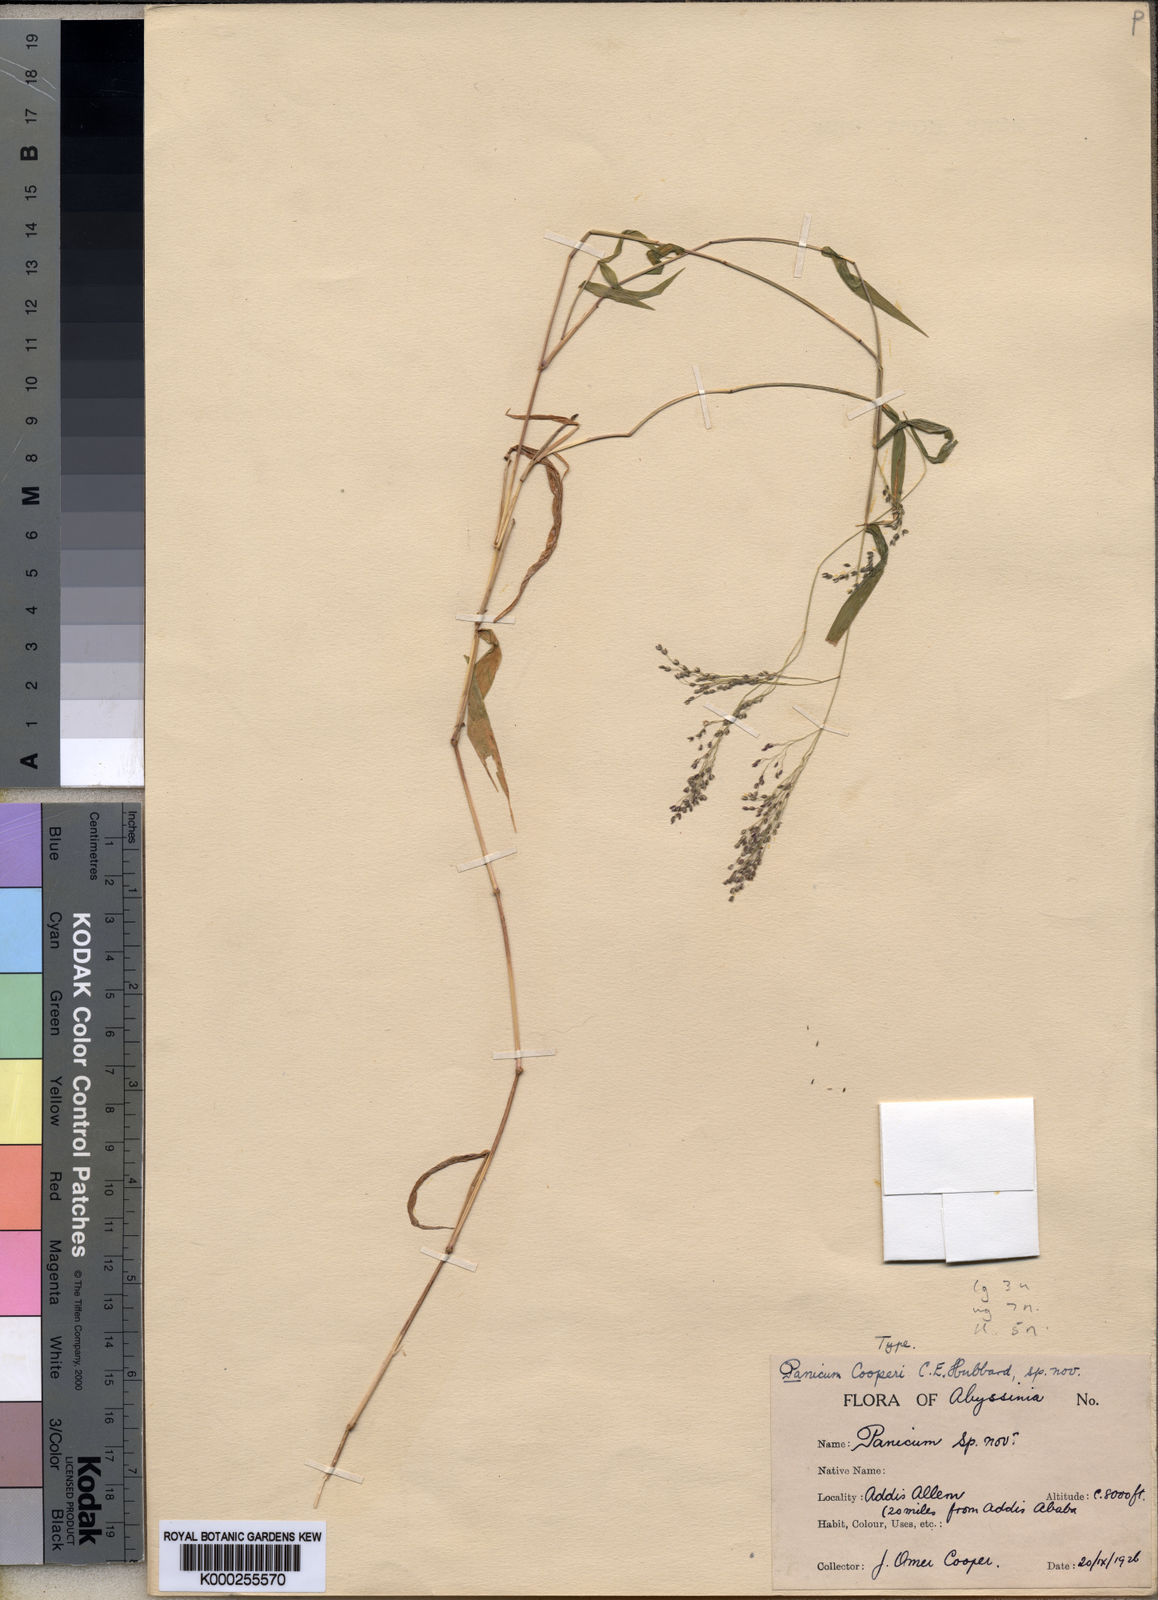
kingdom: Plantae
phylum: Tracheophyta
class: Liliopsida
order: Poales
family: Poaceae
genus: Panicum
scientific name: Panicum hochstetteri
